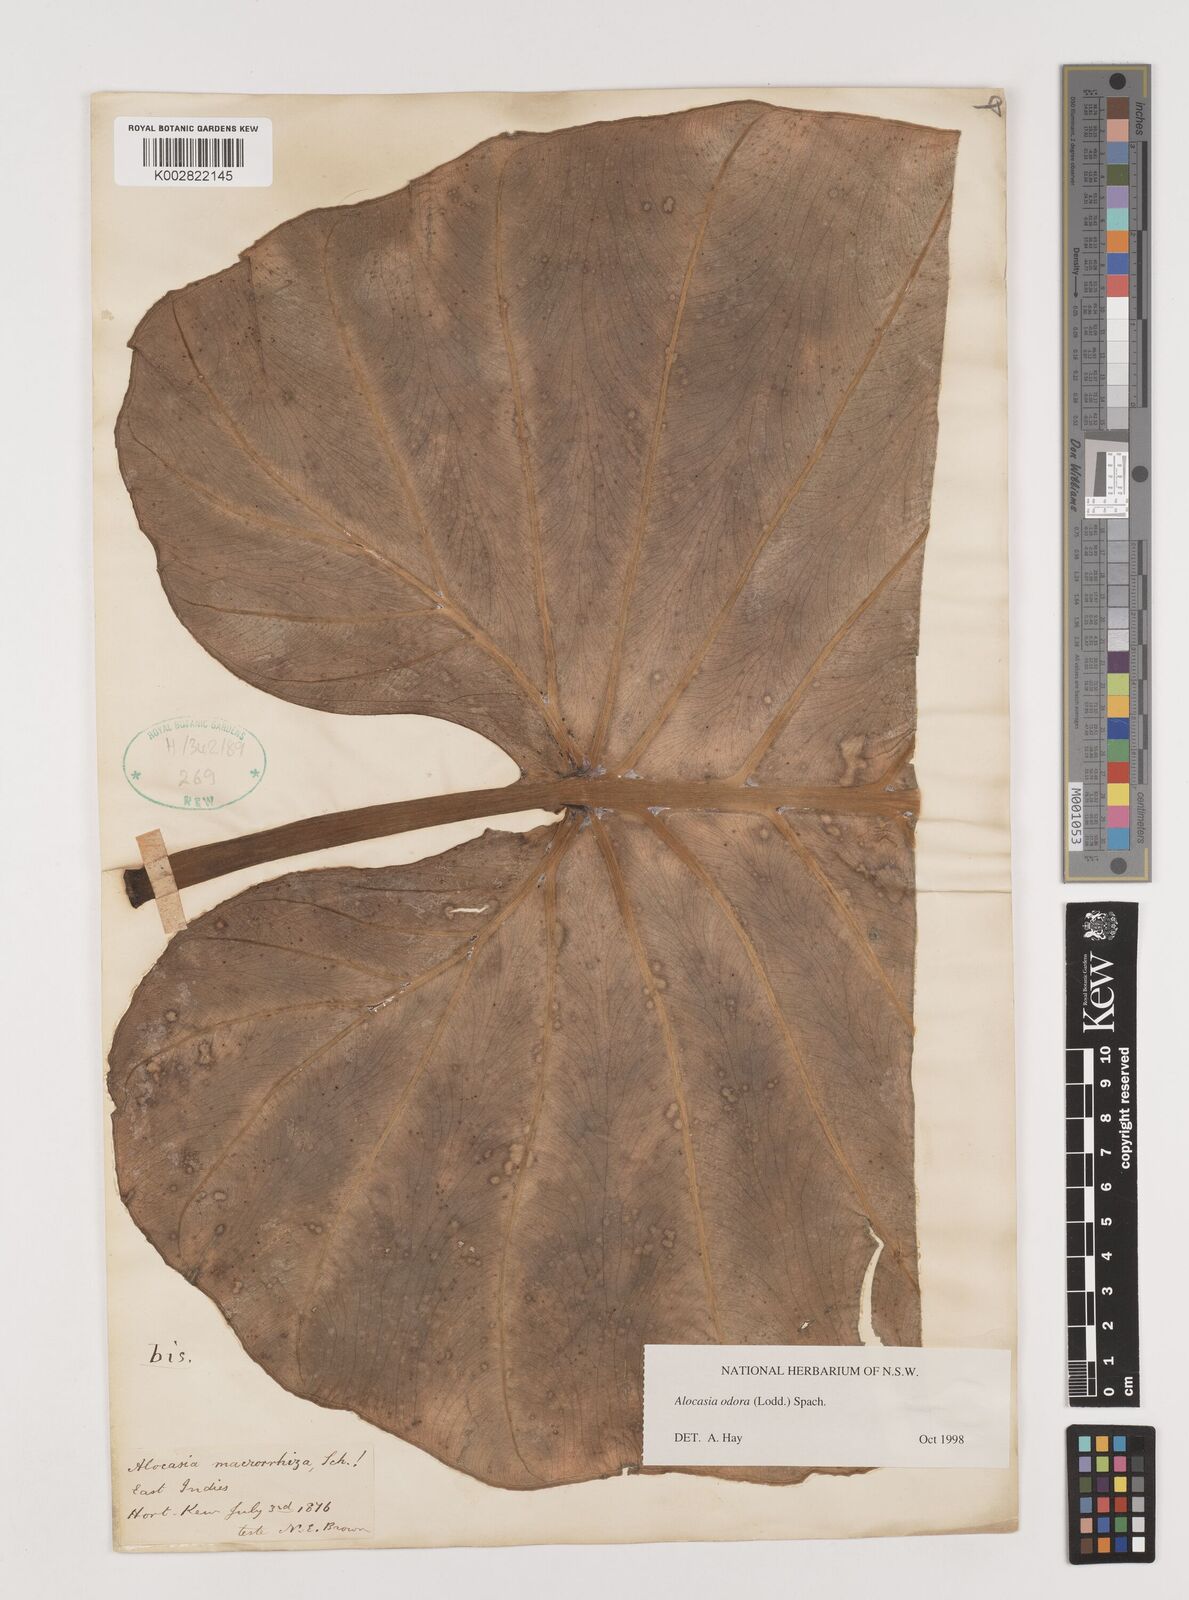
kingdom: Plantae
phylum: Tracheophyta
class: Liliopsida
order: Alismatales
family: Araceae
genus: Alocasia
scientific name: Alocasia odora
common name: Asian taro
